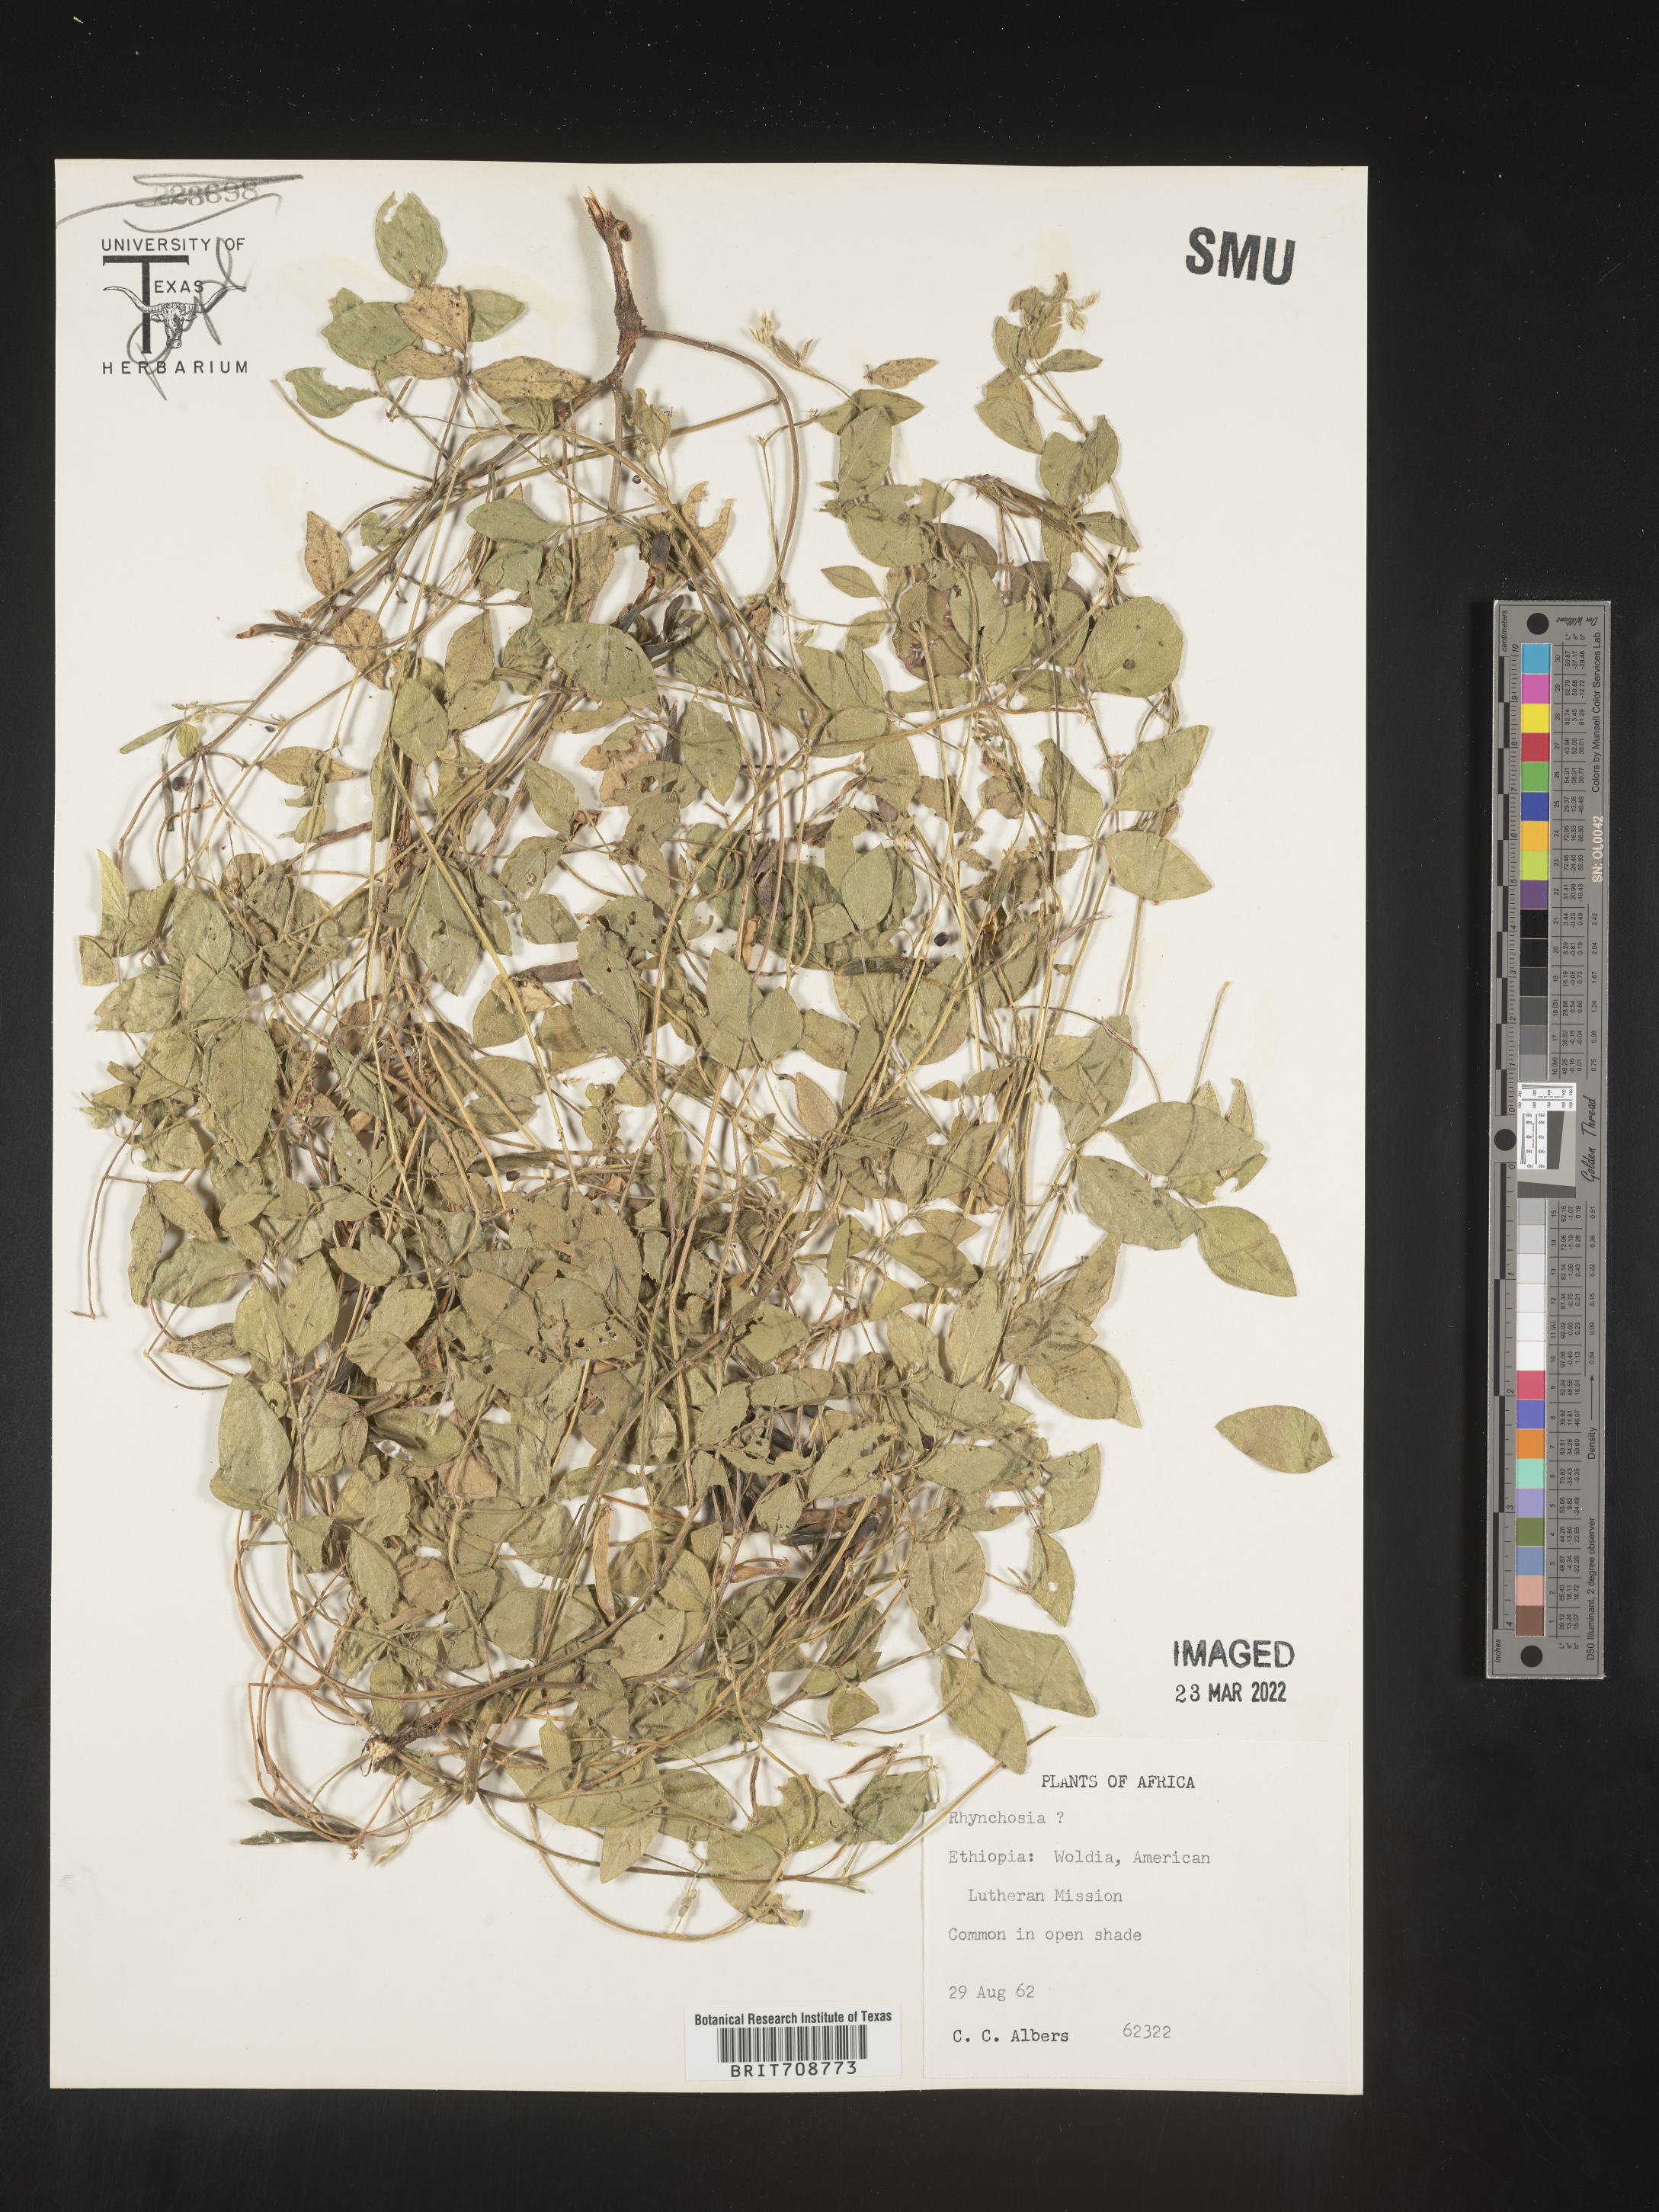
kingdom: Plantae
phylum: Tracheophyta
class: Magnoliopsida
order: Fabales
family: Fabaceae
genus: Rhynchosia
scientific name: Rhynchosia
